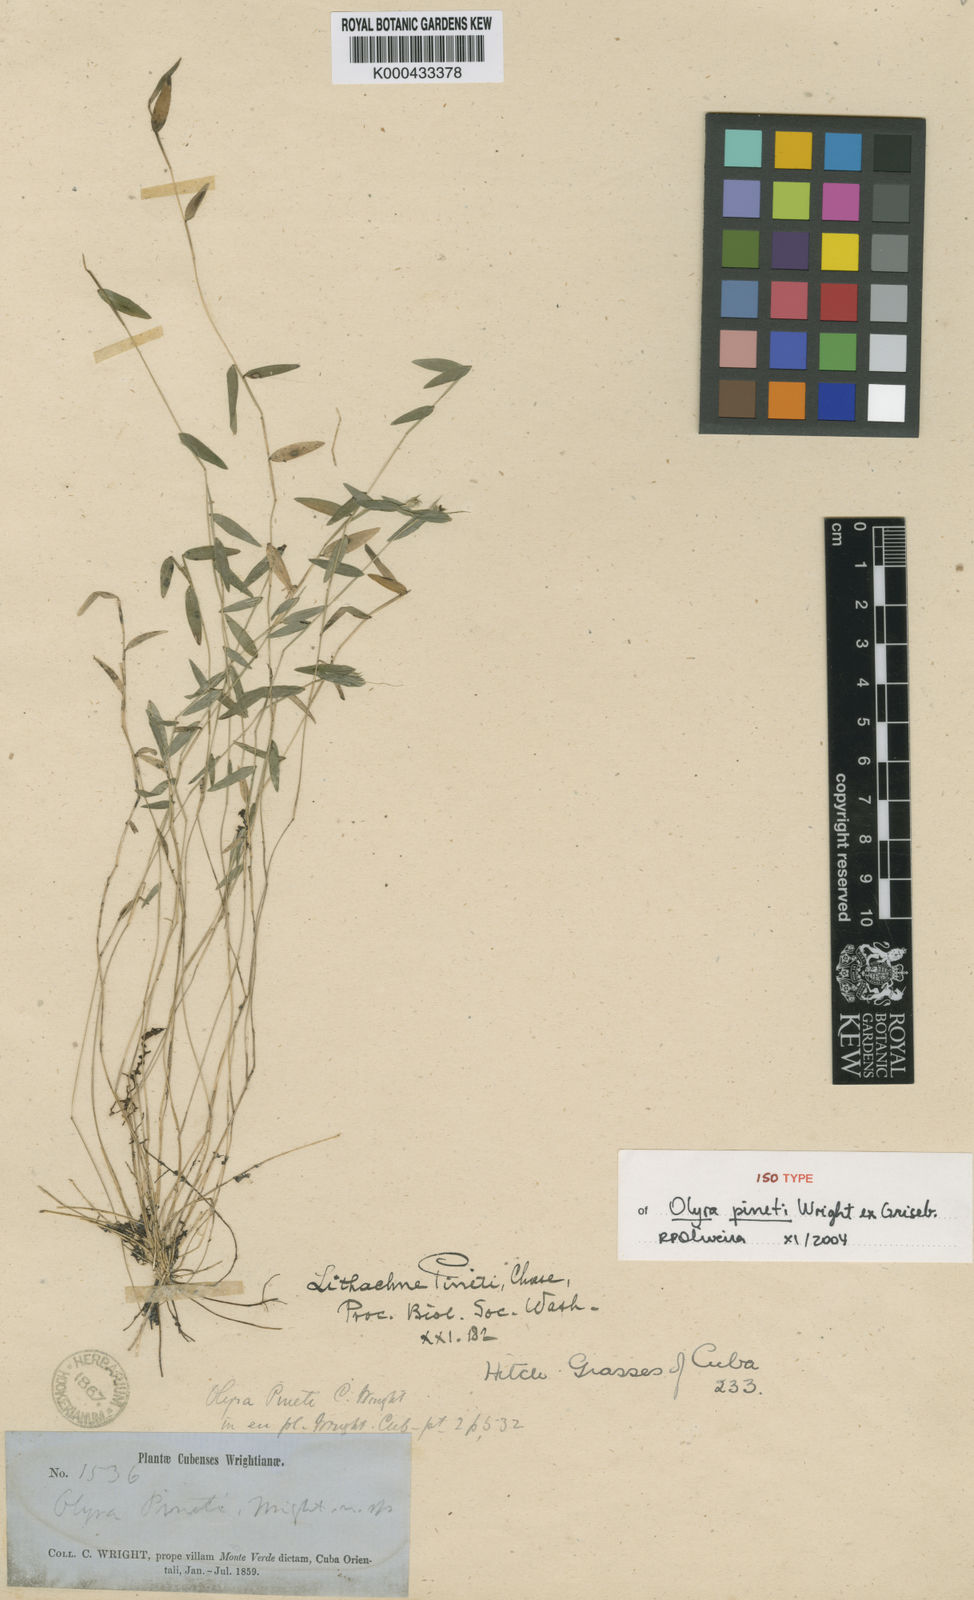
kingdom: Plantae
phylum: Tracheophyta
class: Liliopsida
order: Poales
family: Poaceae
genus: Lithachne
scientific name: Lithachne pinetii
